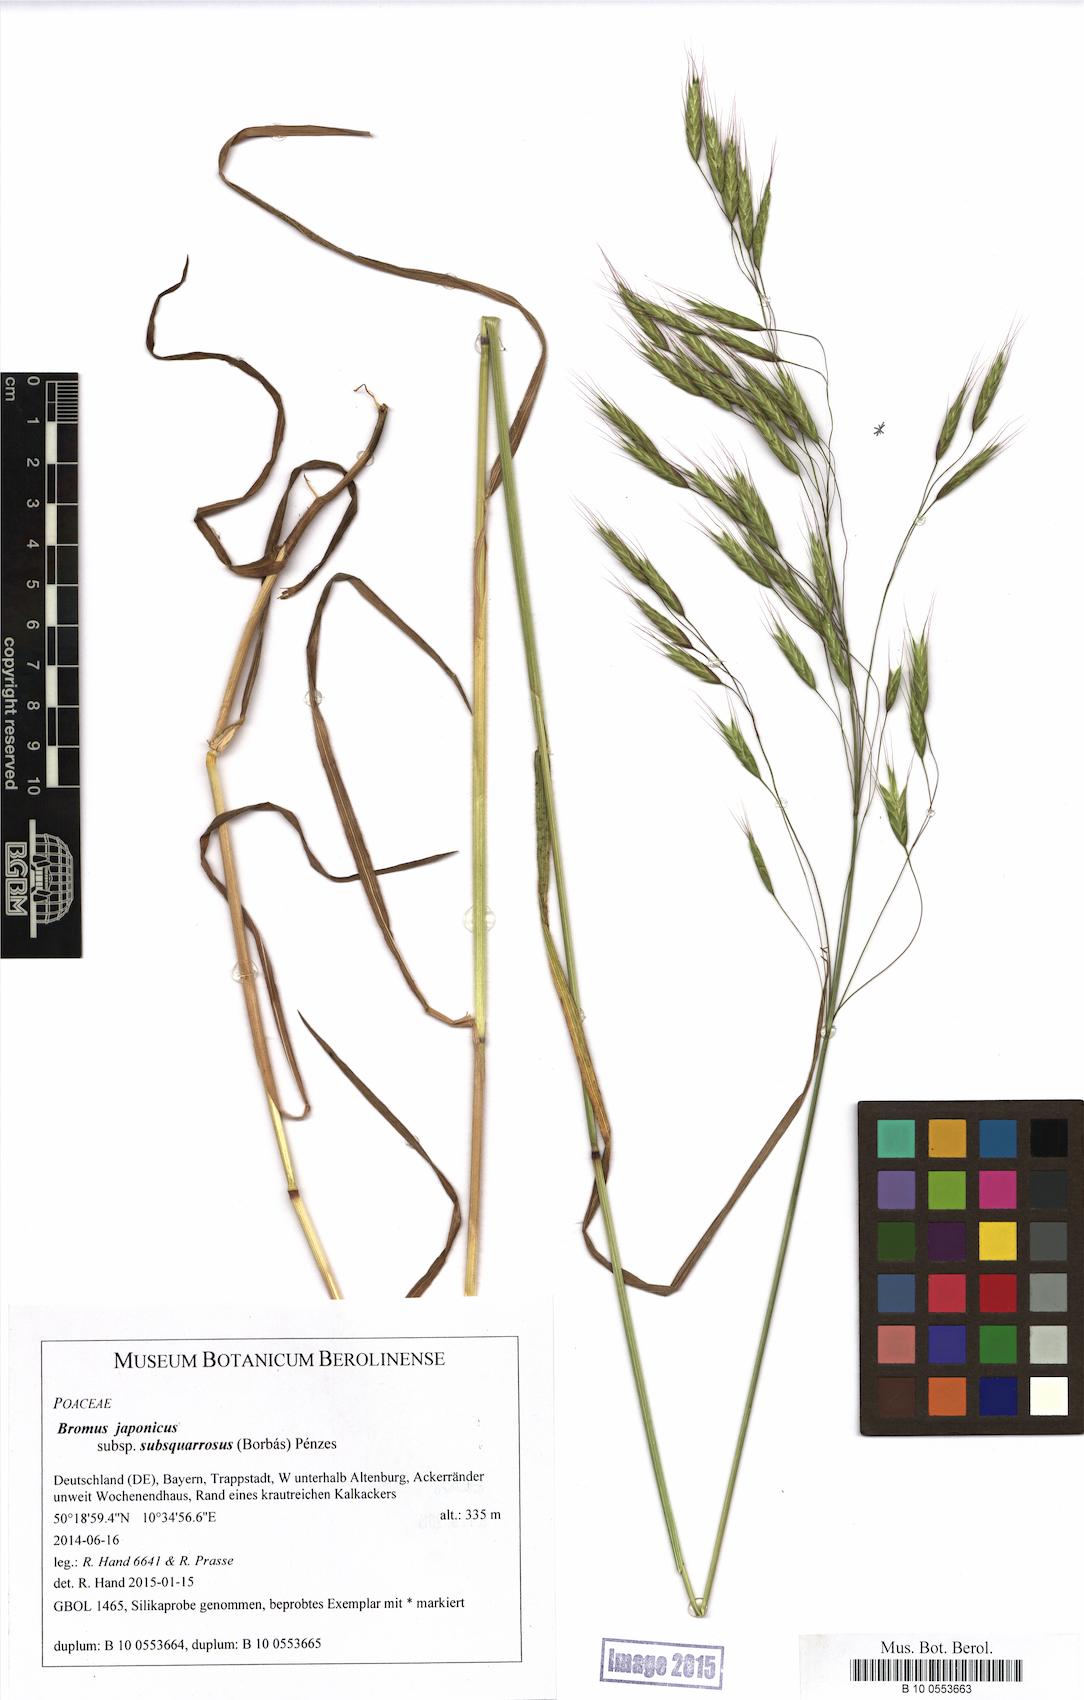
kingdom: Plantae
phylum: Tracheophyta
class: Liliopsida
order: Poales
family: Poaceae
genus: Bromus
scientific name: Bromus japonicus
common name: Japanese brome
